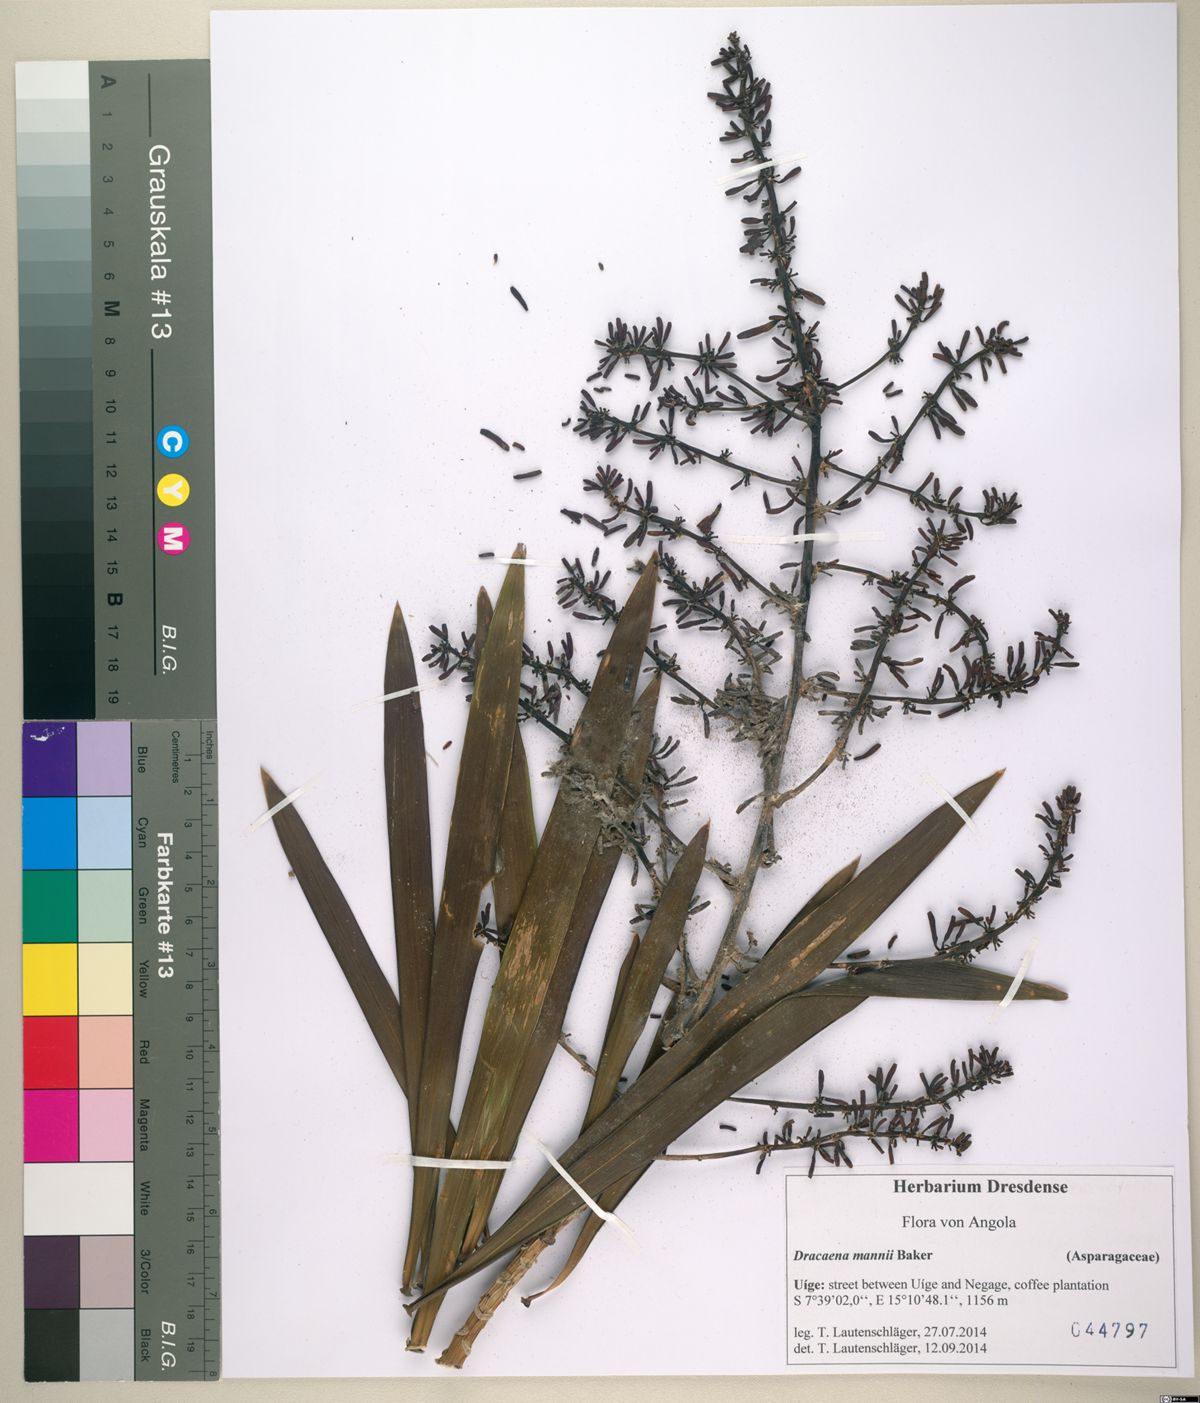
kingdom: Plantae
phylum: Tracheophyta
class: Liliopsida
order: Asparagales
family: Asparagaceae
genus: Dracaena
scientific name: Dracaena mannii
